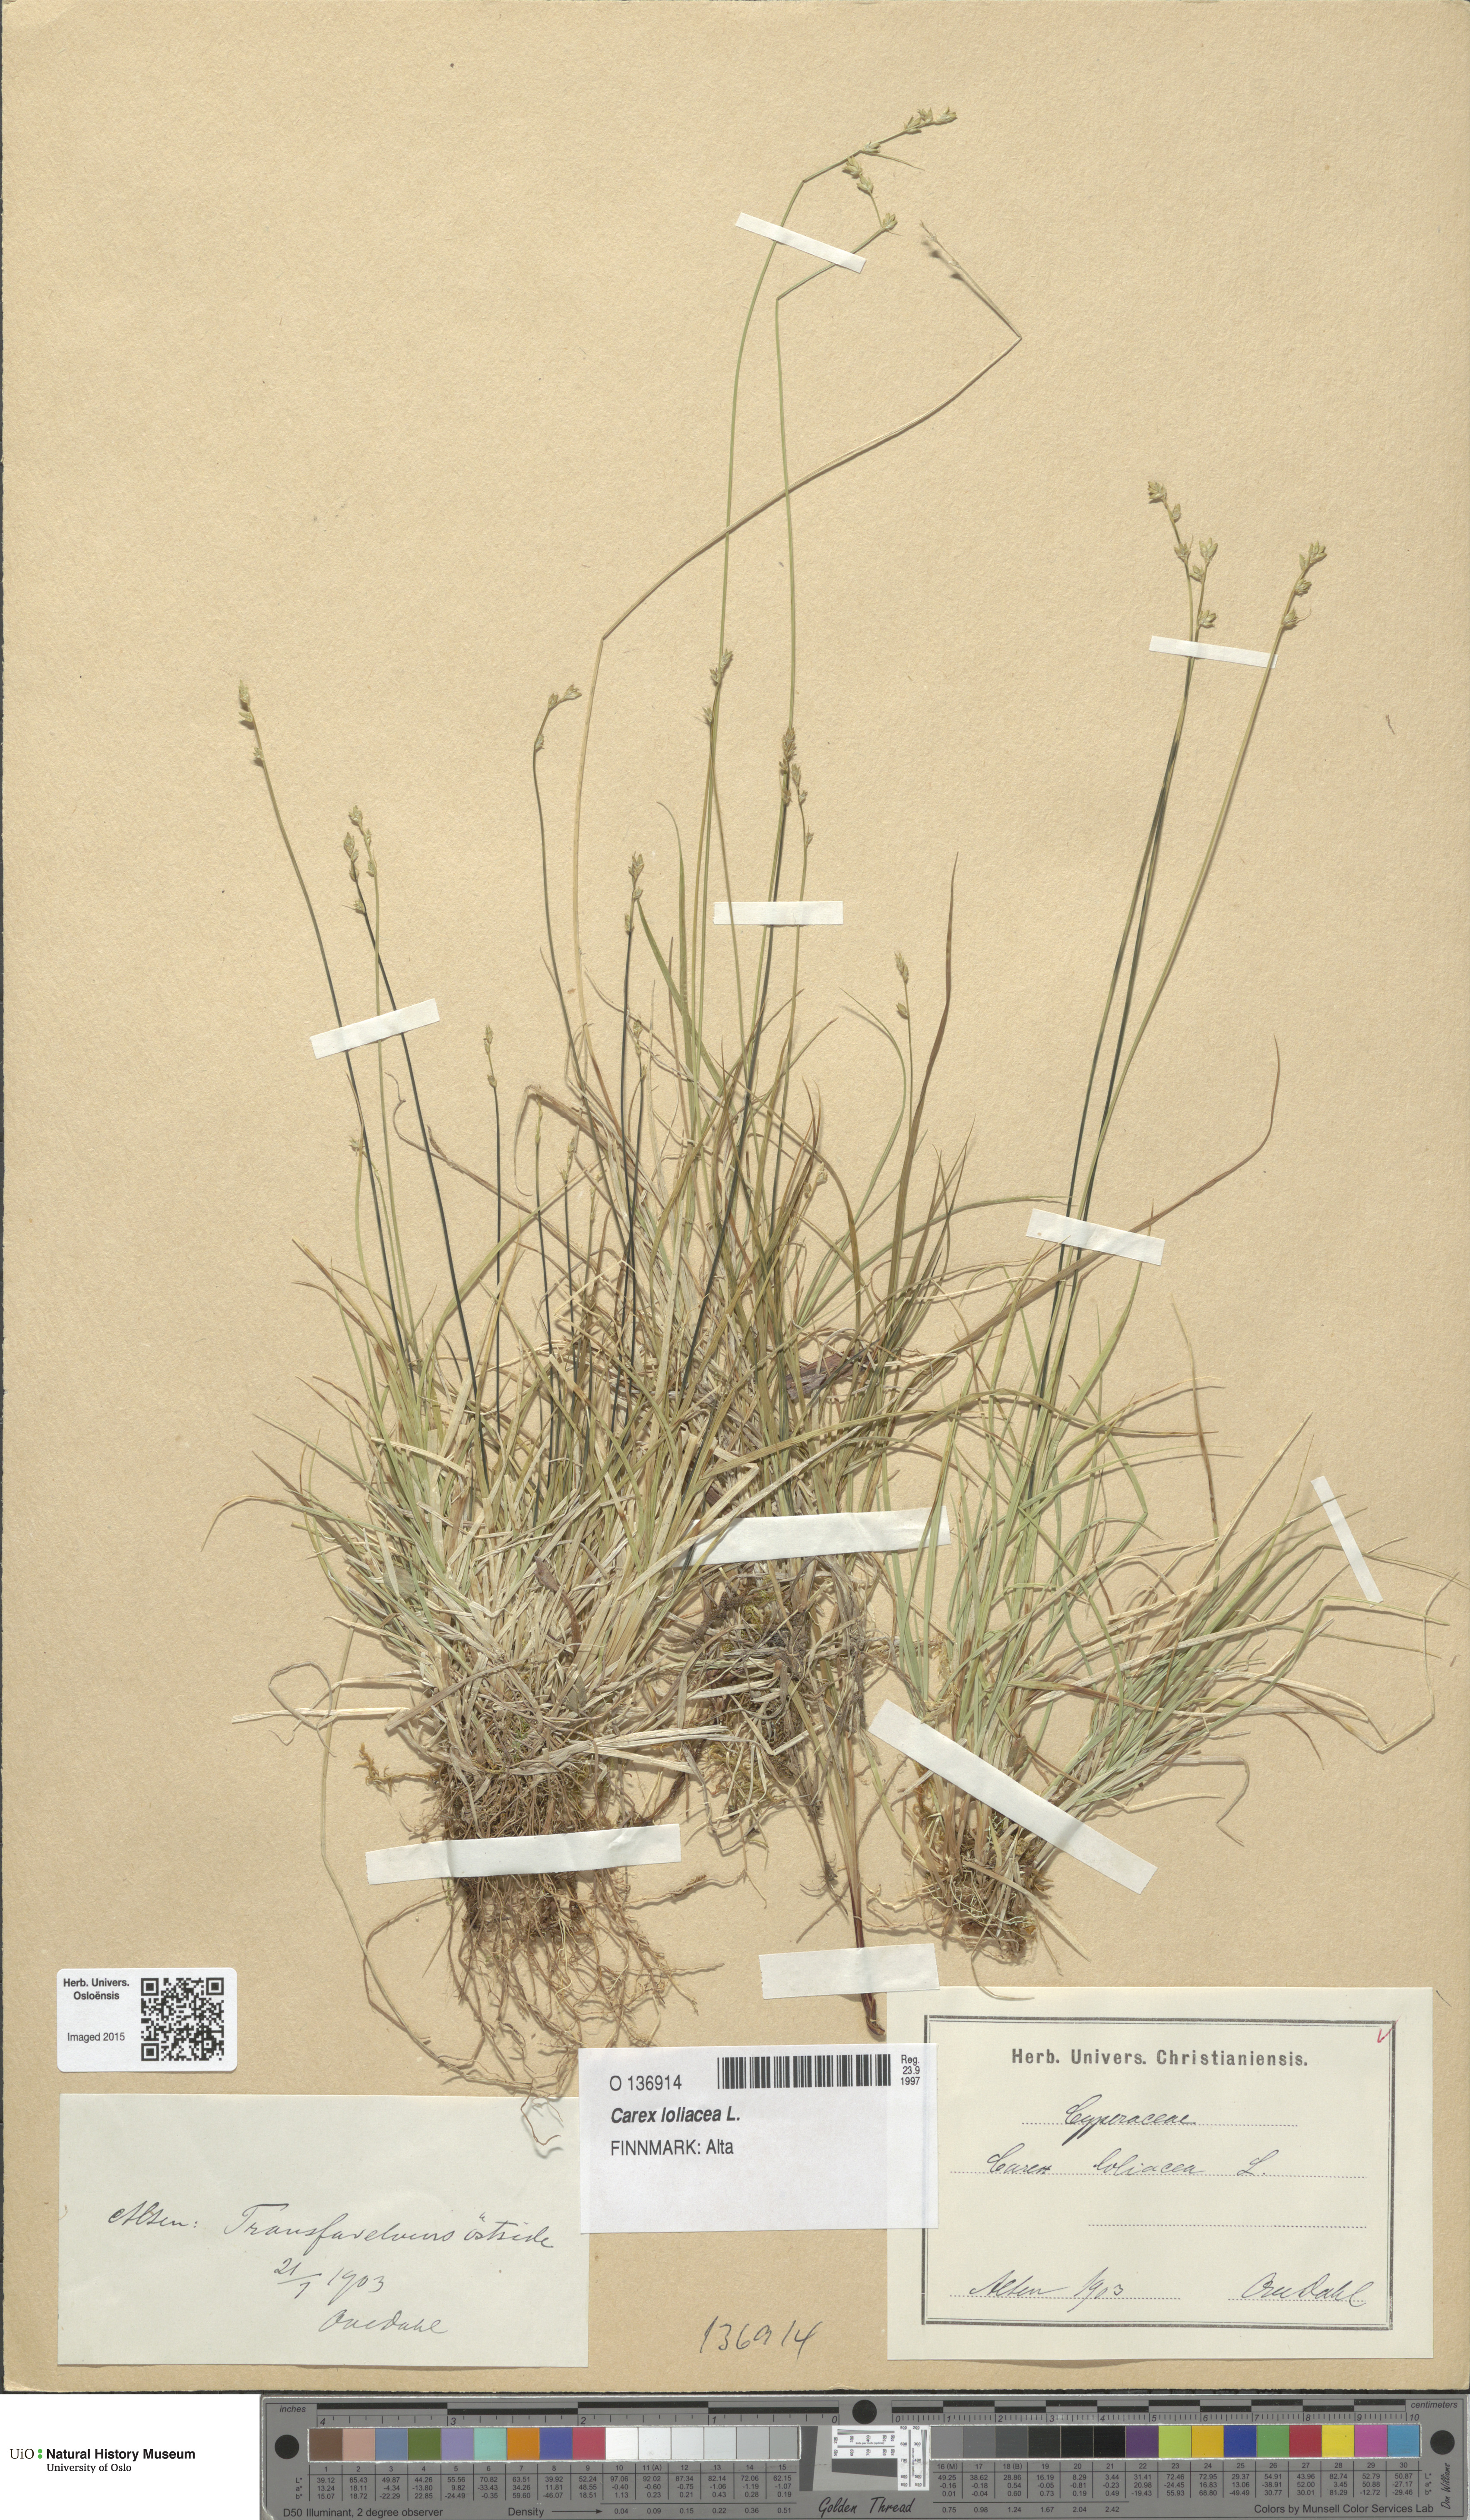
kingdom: Plantae
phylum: Tracheophyta
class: Liliopsida
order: Poales
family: Cyperaceae
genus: Carex
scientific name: Carex loliacea
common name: Ryegrass sedge
